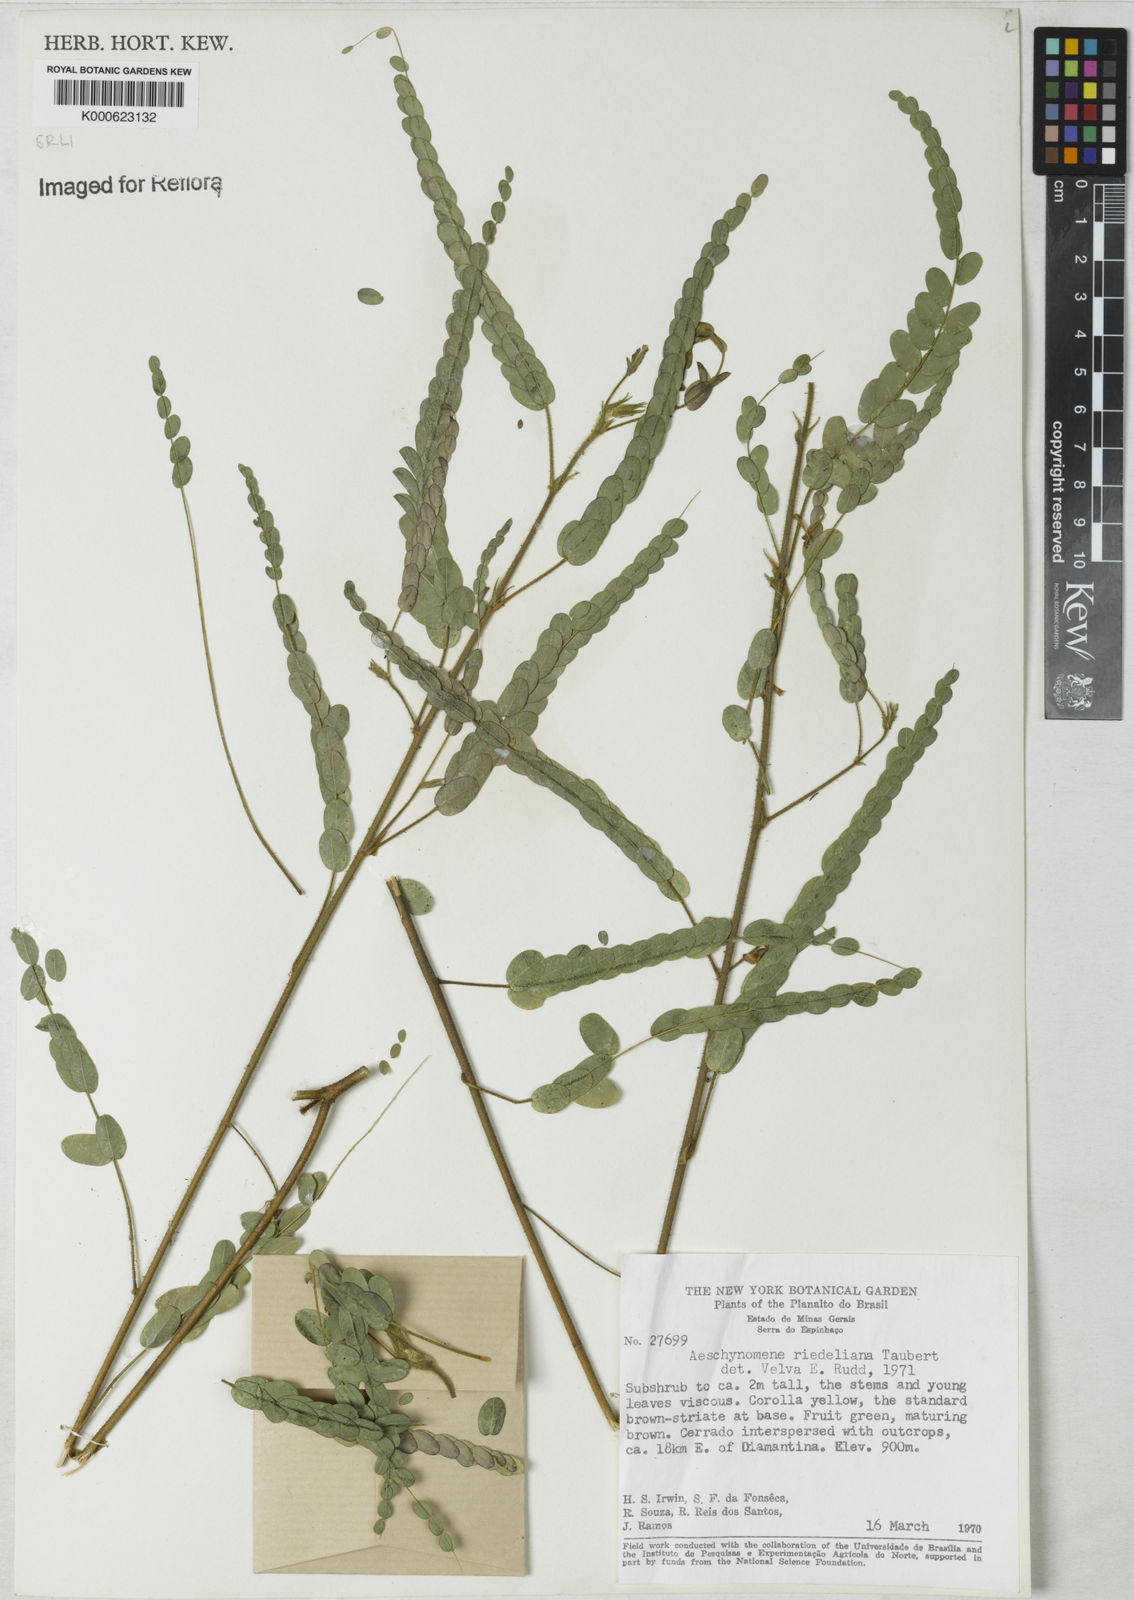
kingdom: Plantae
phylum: Tracheophyta
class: Magnoliopsida
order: Fabales
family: Fabaceae
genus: Ctenodon
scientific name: Ctenodon riedelianus
